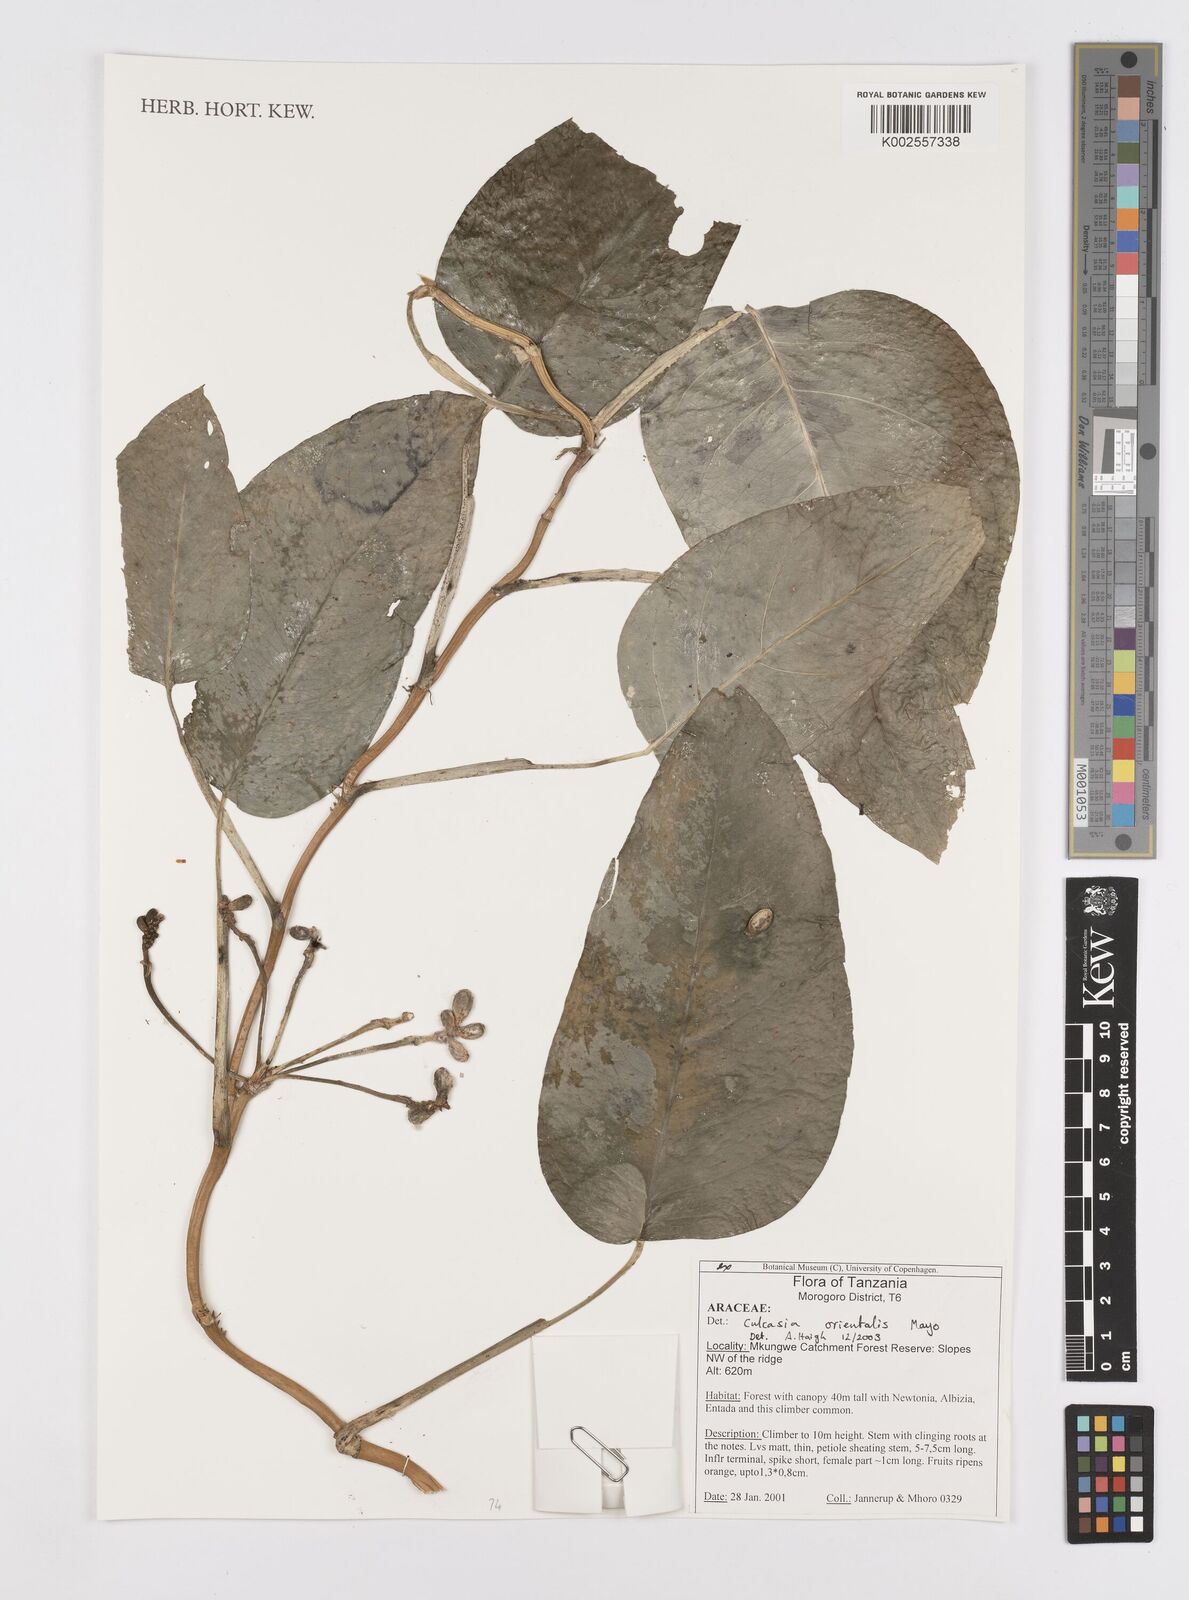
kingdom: Plantae
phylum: Tracheophyta
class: Liliopsida
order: Alismatales
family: Araceae
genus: Culcasia
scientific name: Culcasia orientalis
